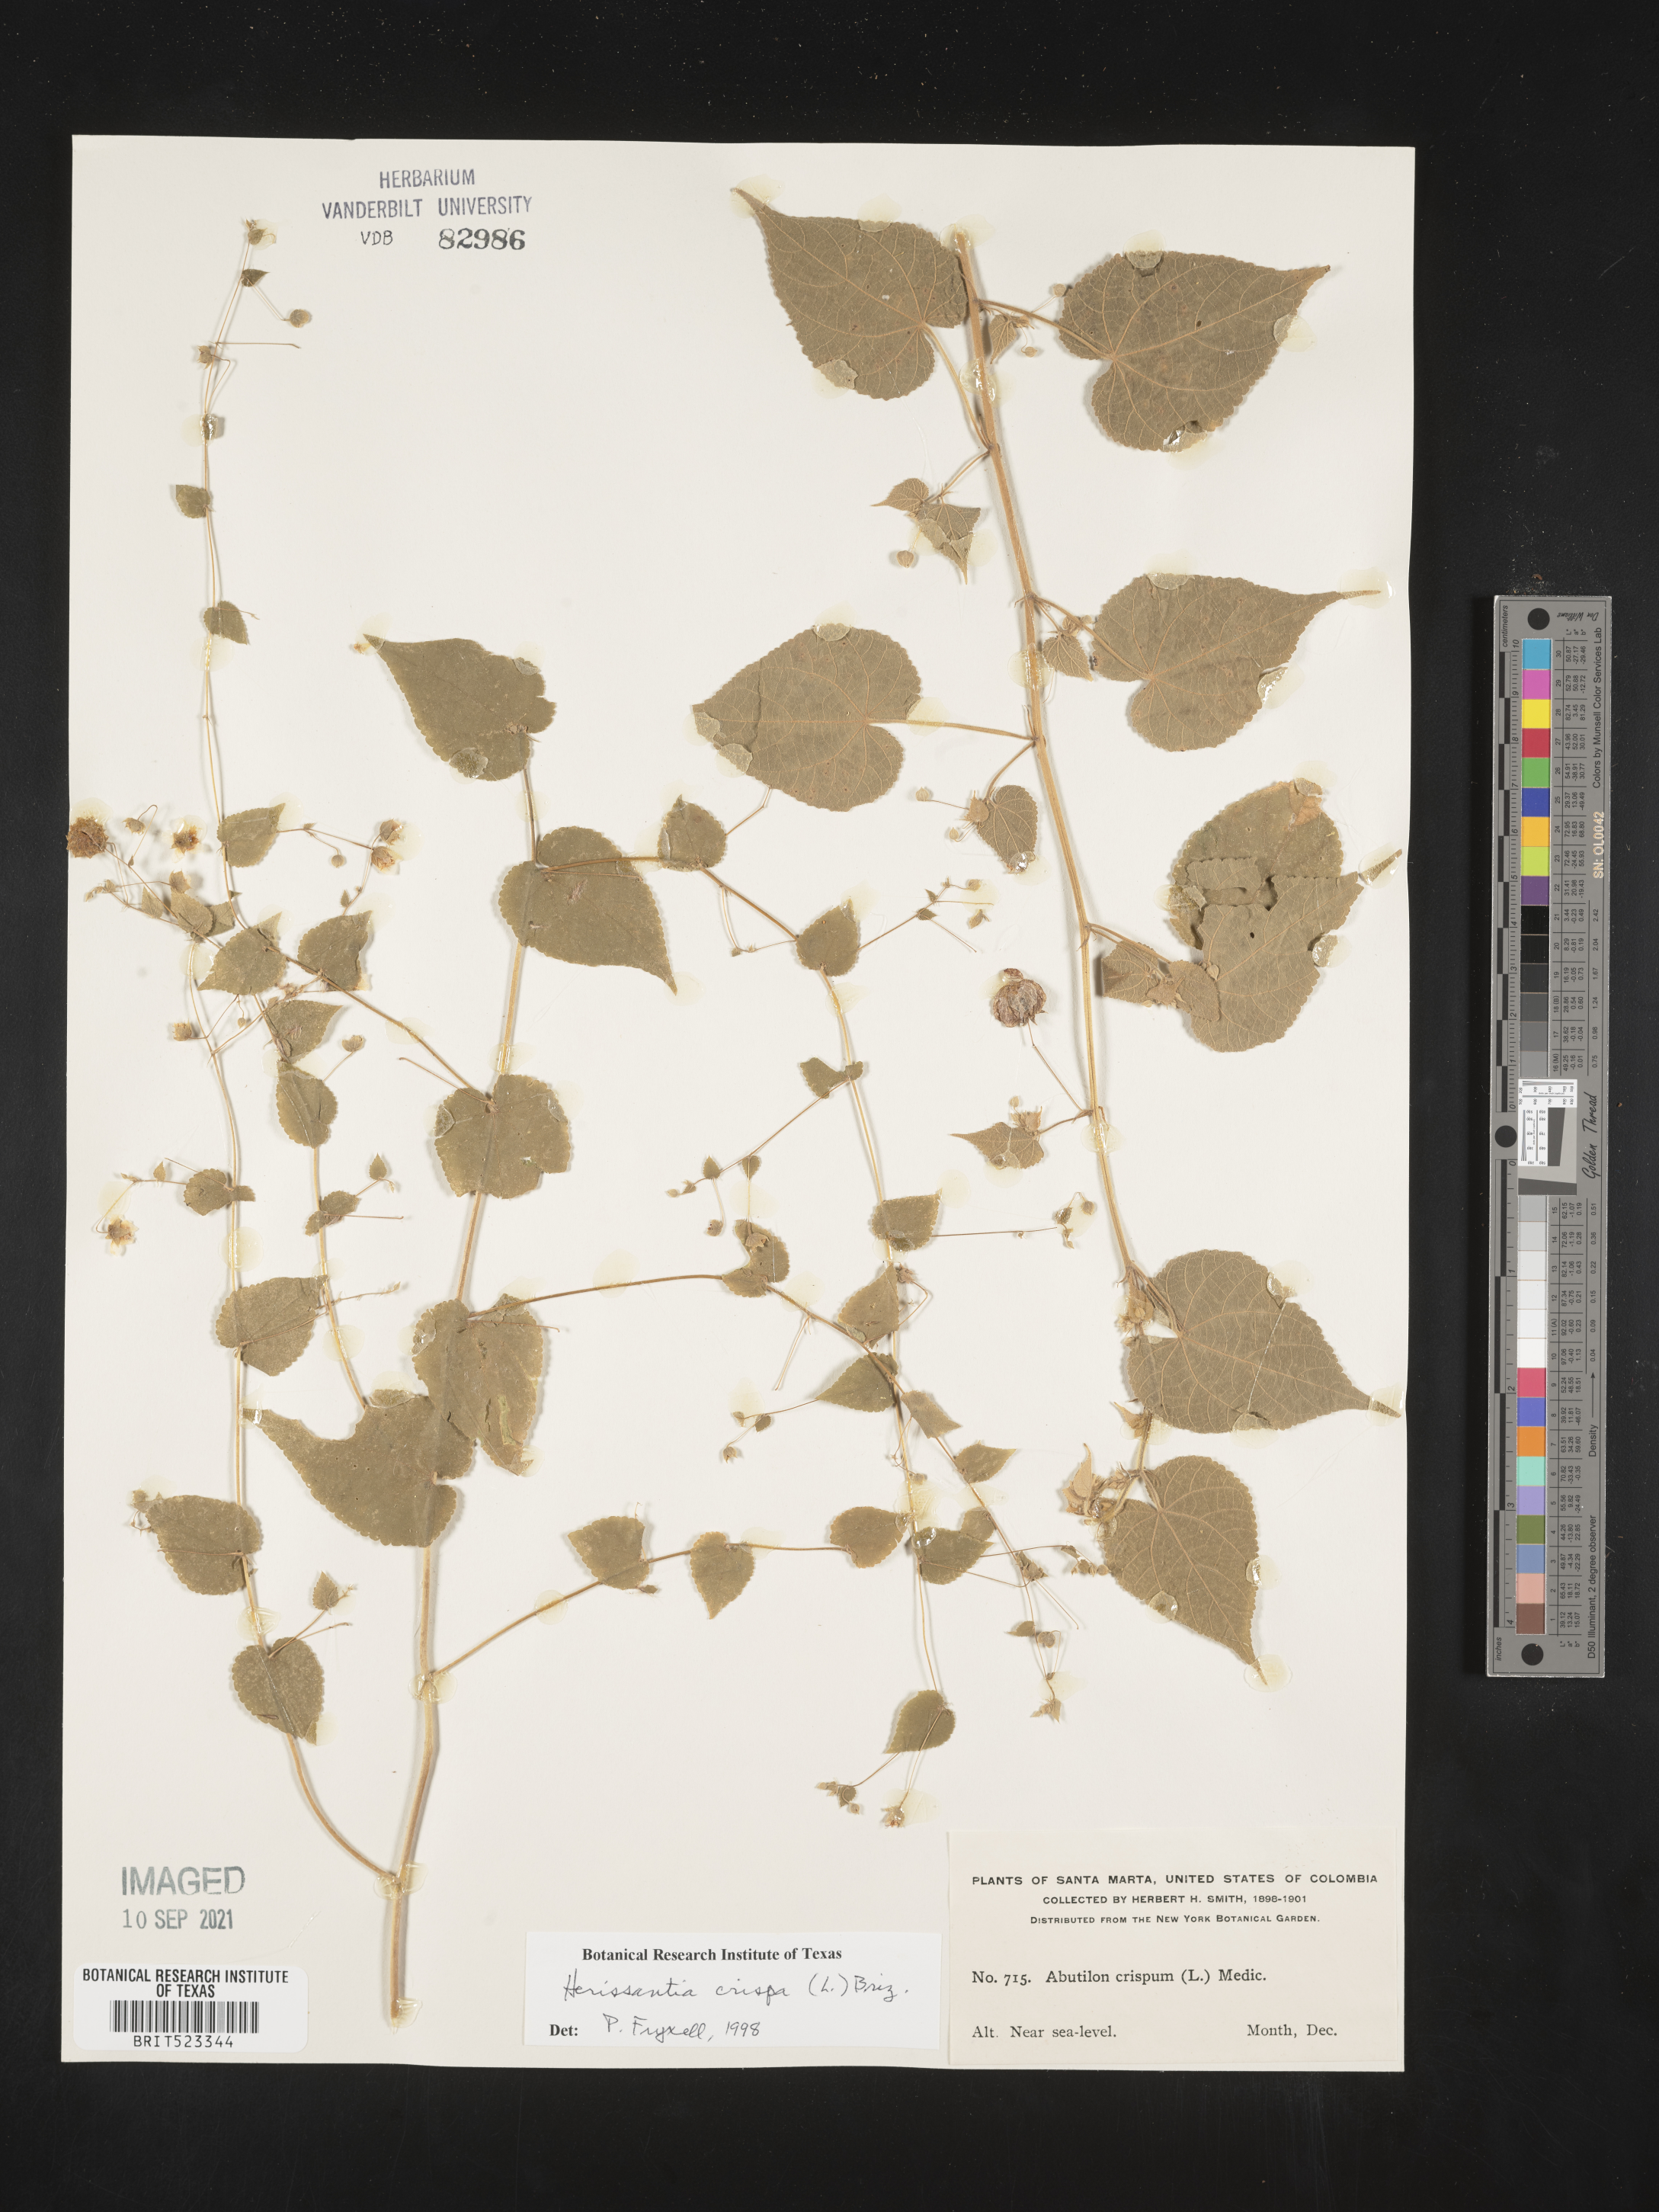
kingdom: Plantae
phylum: Tracheophyta
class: Magnoliopsida
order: Malvales
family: Malvaceae
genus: Herissantia
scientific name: Herissantia
